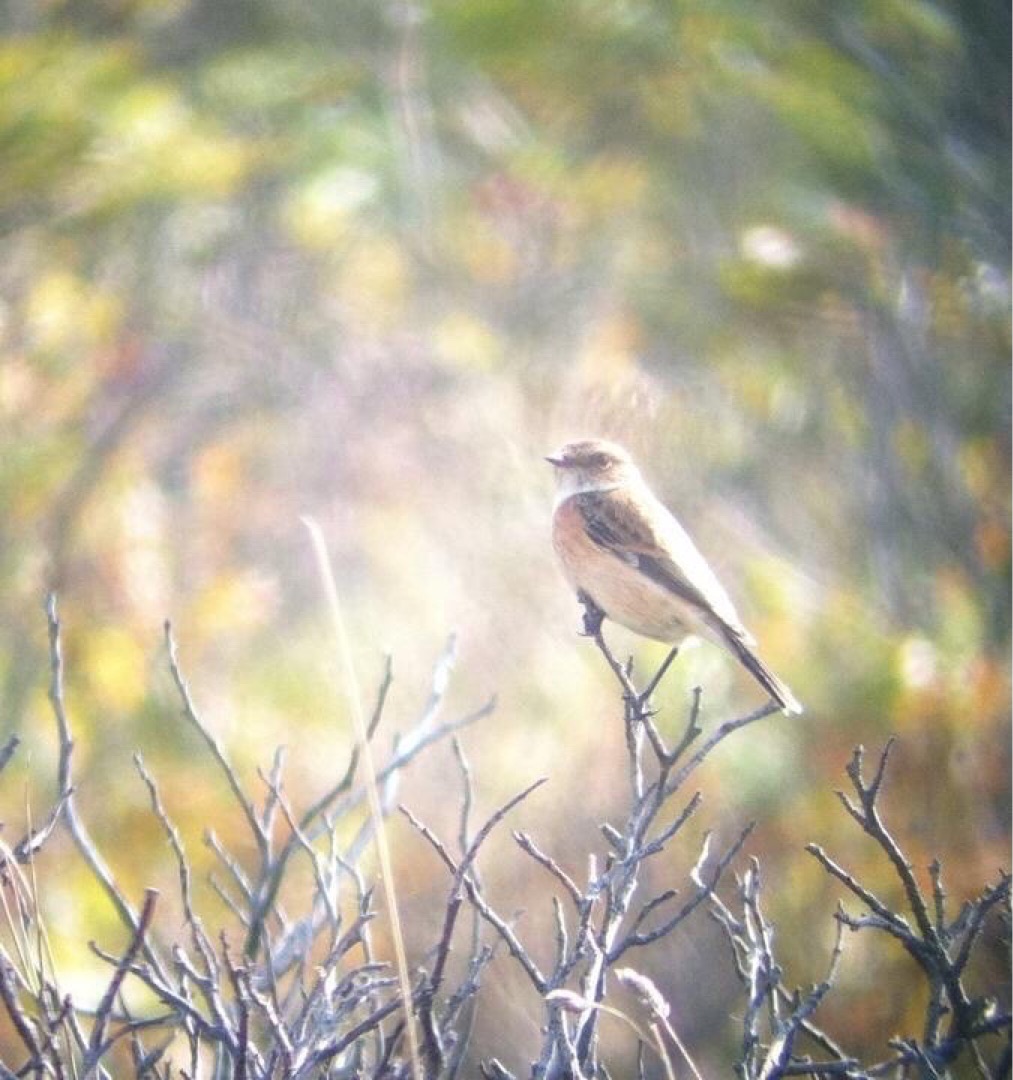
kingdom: Animalia
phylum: Chordata
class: Aves
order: Passeriformes
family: Muscicapidae
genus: Saxicola
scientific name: Saxicola maurus
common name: Sibirisk bynkefugl
